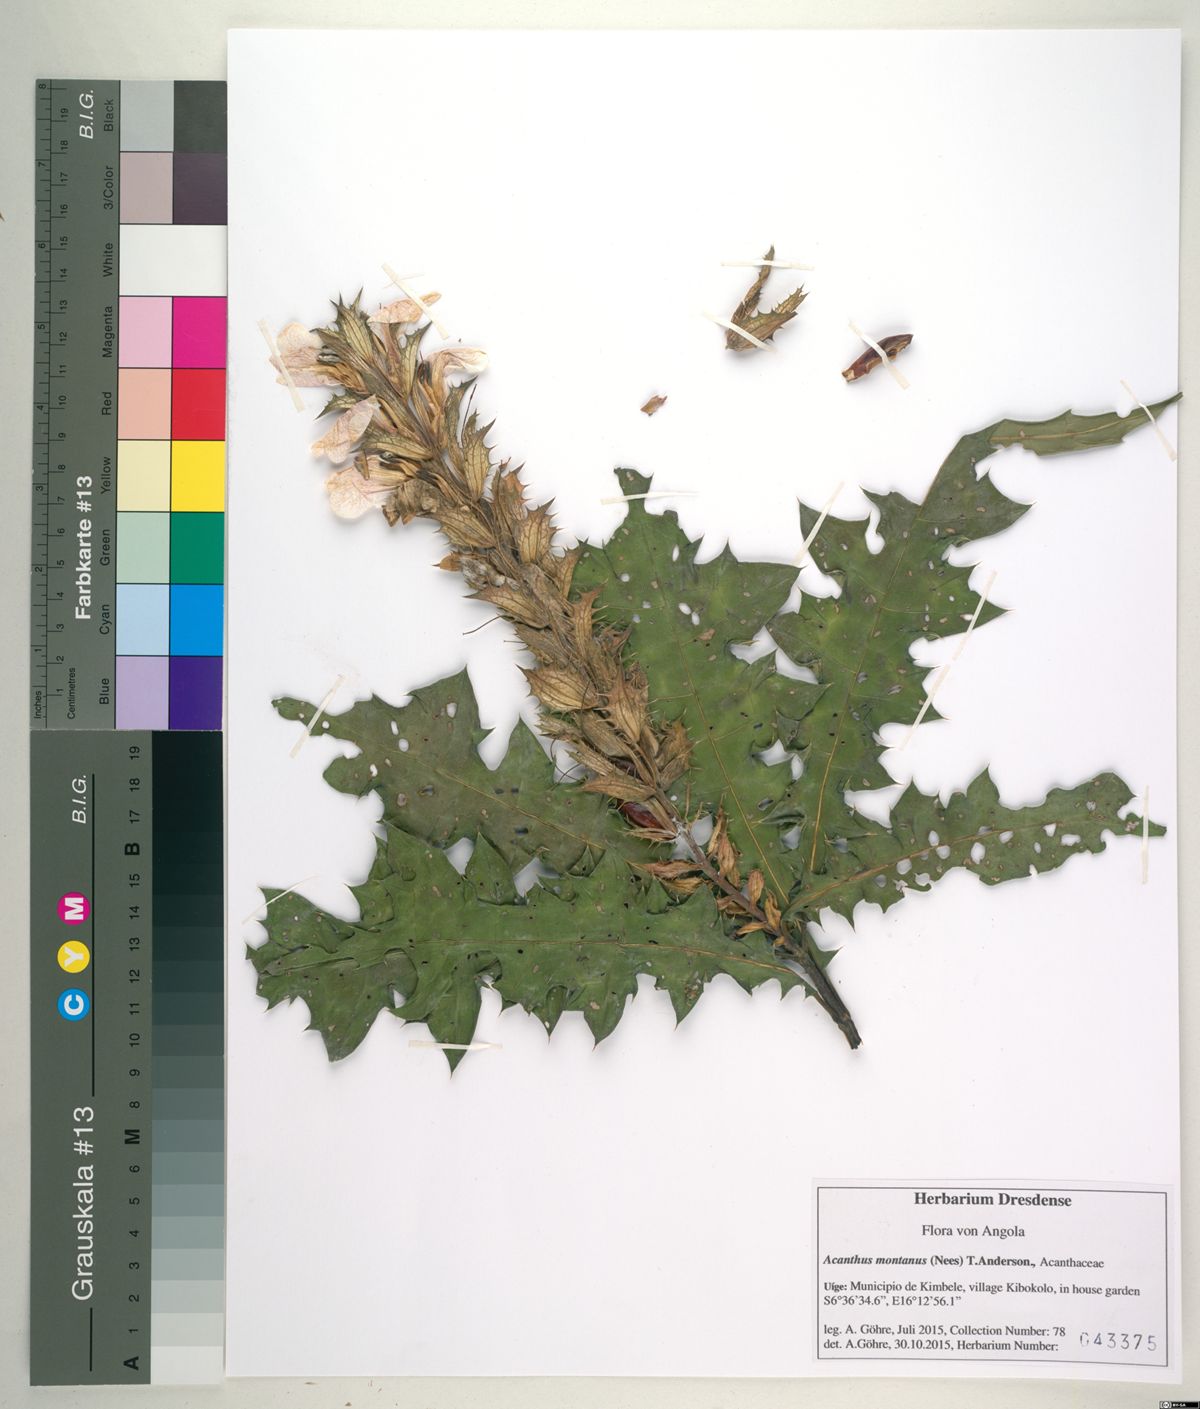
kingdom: Plantae
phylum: Tracheophyta
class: Magnoliopsida
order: Lamiales
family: Acanthaceae
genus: Acanthus
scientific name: Acanthus montanus
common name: Mountain thistle
